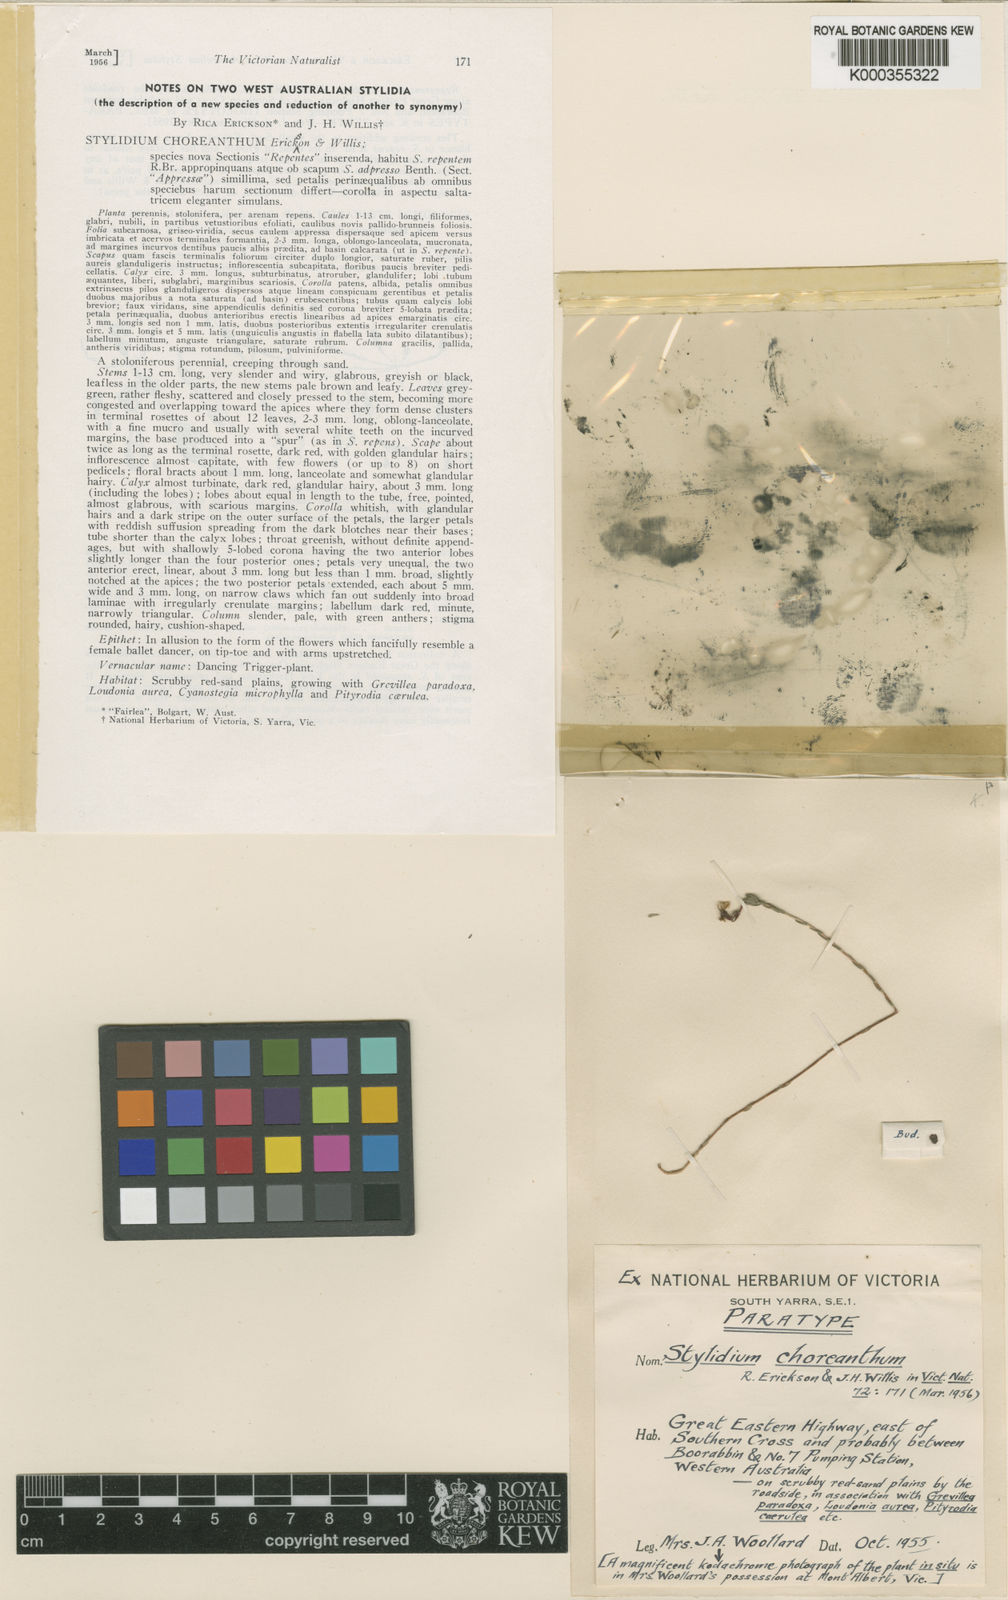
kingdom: Plantae
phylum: Tracheophyta
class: Magnoliopsida
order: Asterales
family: Stylidiaceae
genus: Stylidium
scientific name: Stylidium choreanthum
